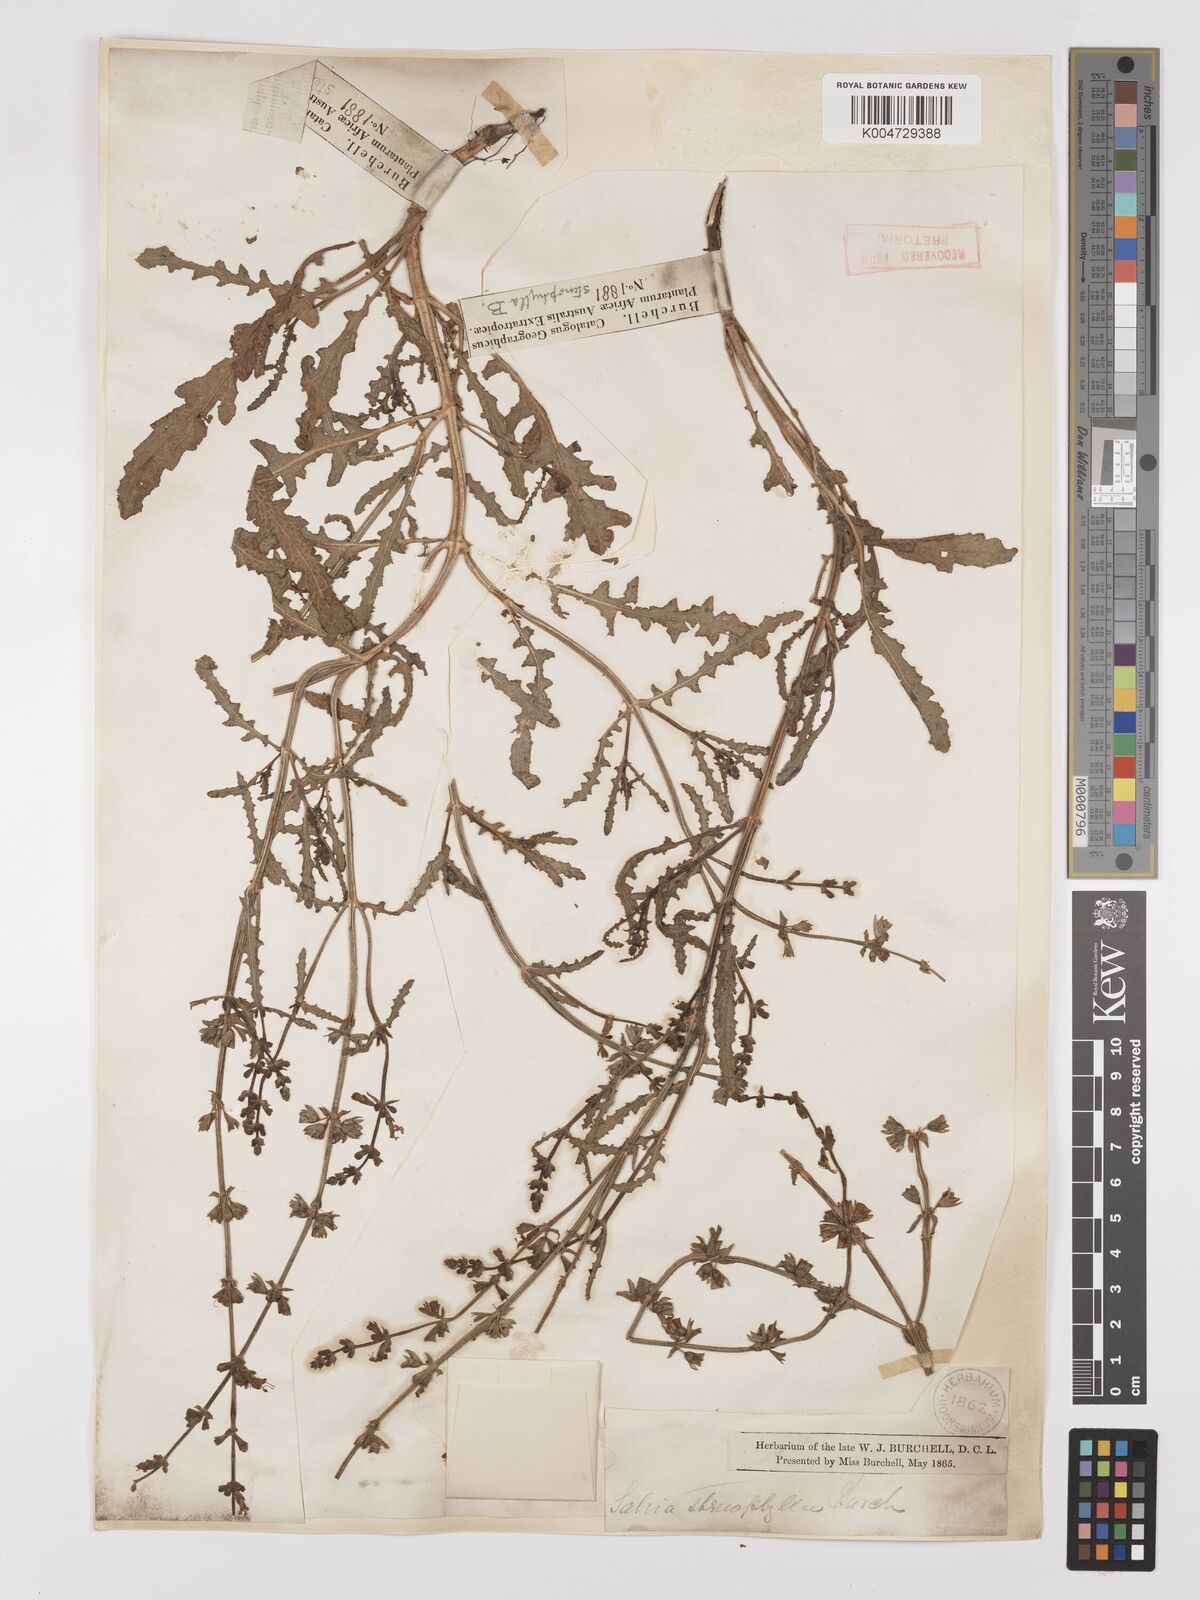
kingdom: Plantae
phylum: Tracheophyta
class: Magnoliopsida
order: Lamiales
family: Lamiaceae
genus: Salvia
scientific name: Salvia stenophylla
